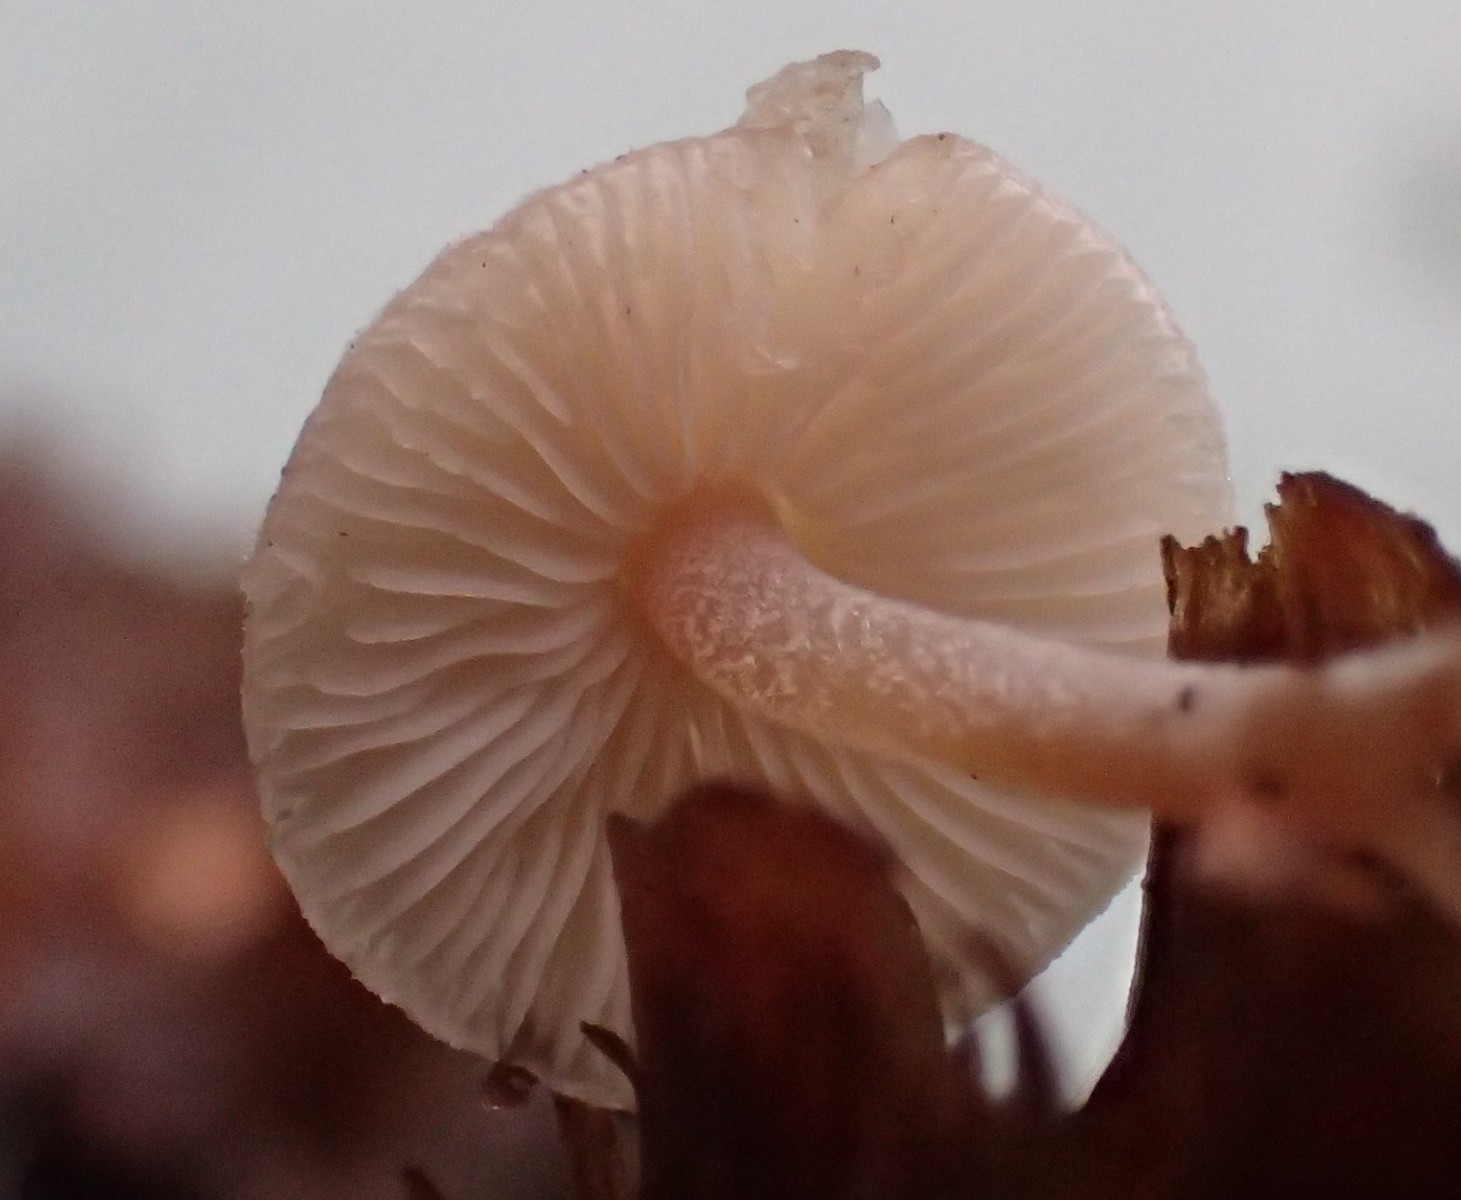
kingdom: Fungi
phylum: Basidiomycota
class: Agaricomycetes
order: Agaricales
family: Marasmiaceae
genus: Baeospora
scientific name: Baeospora myosura
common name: koglebruskhat
